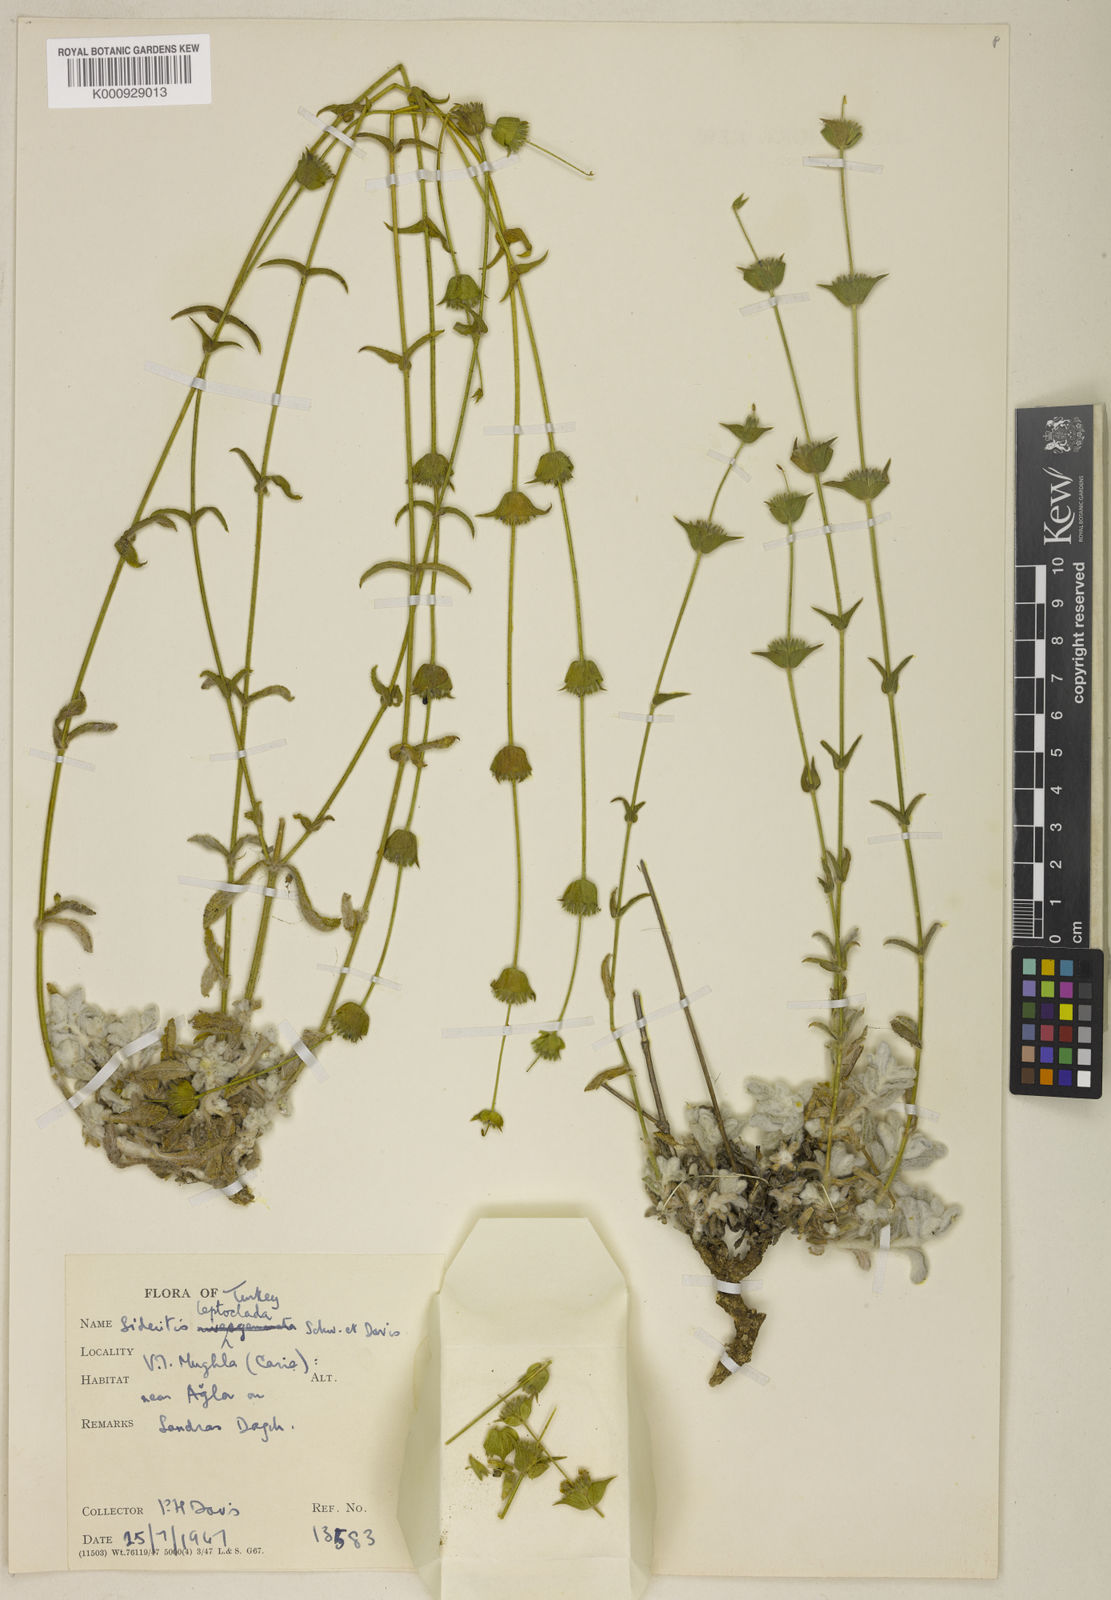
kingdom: Plantae
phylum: Tracheophyta
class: Magnoliopsida
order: Lamiales
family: Lamiaceae
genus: Sideritis
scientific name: Sideritis leptoclada
